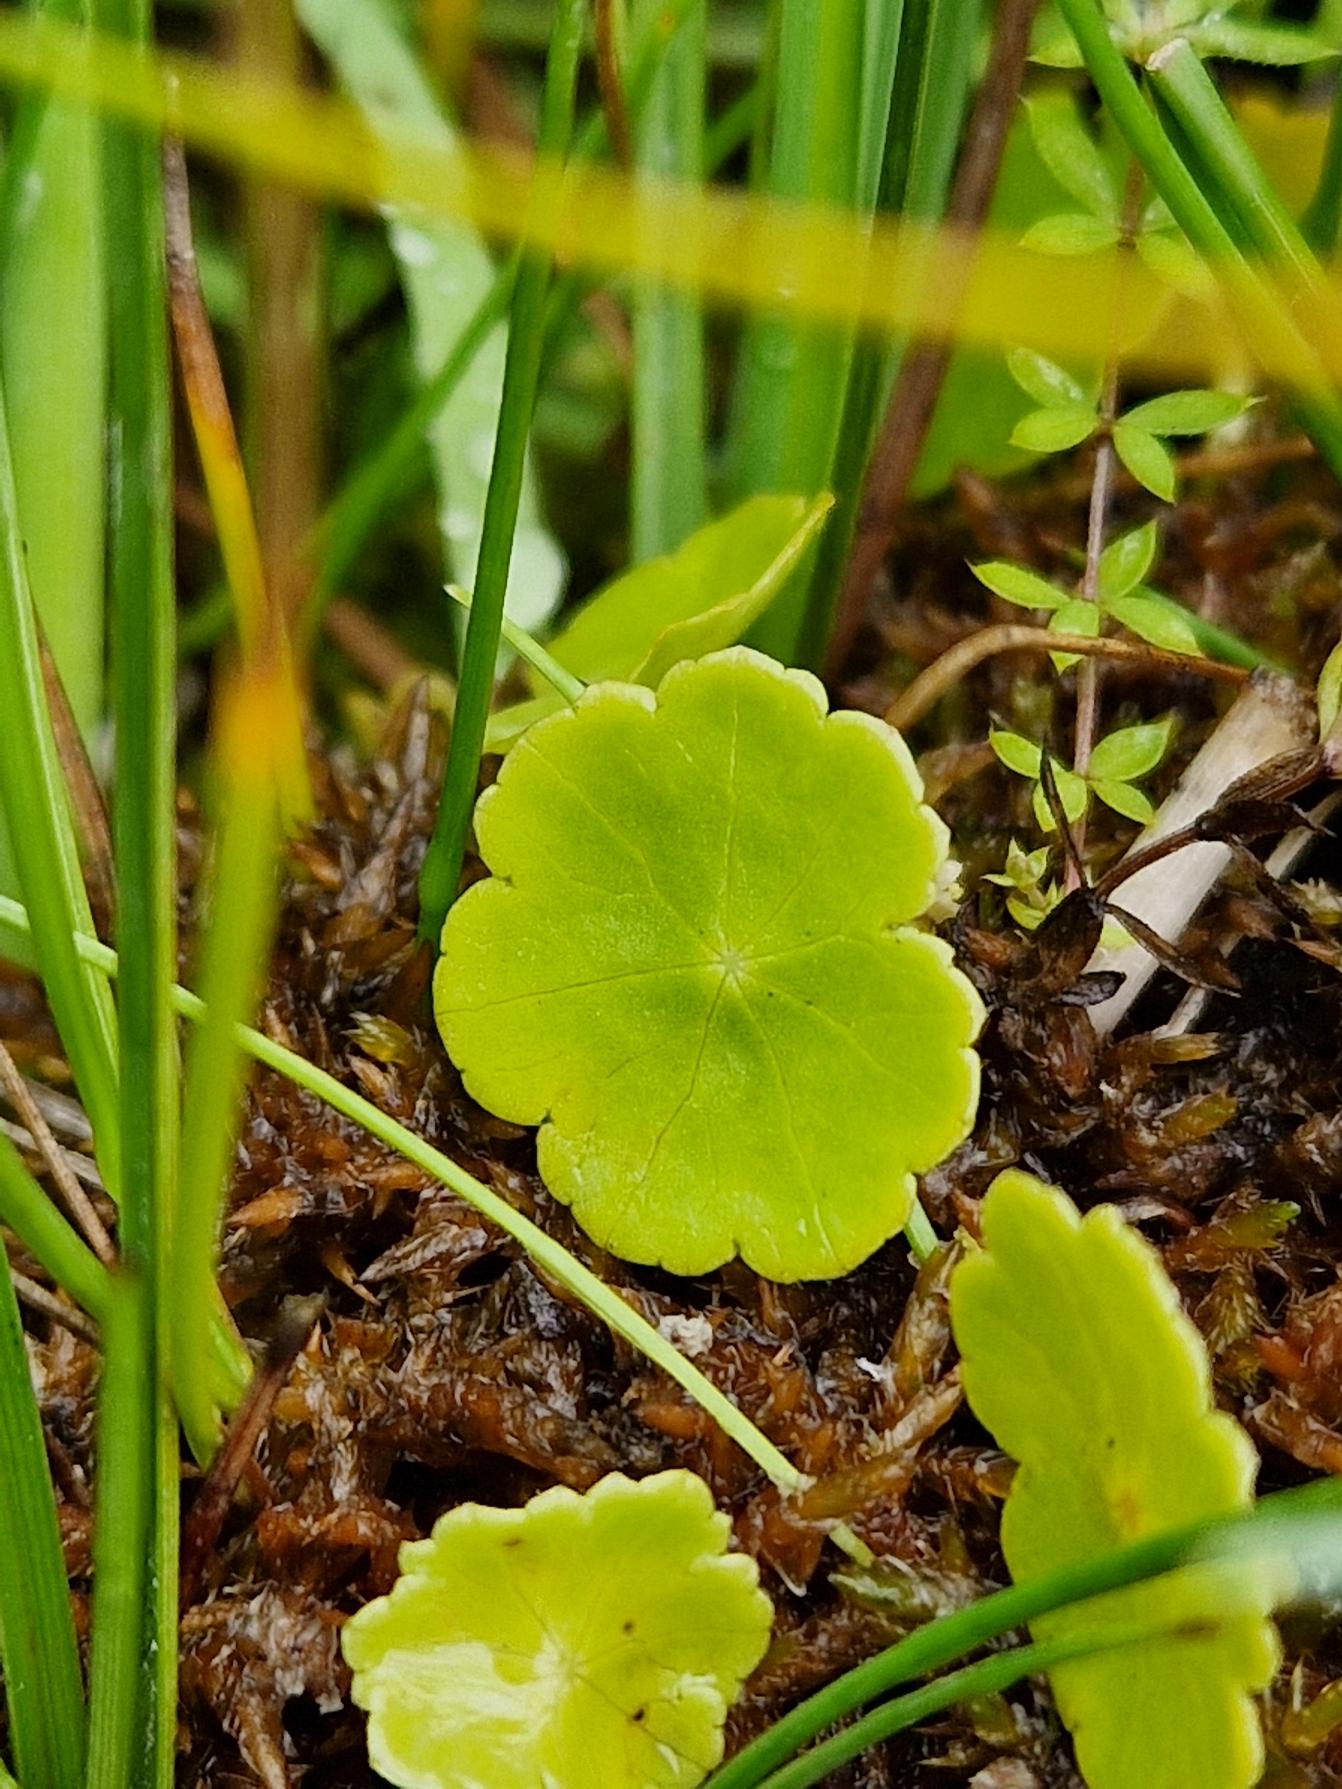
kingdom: Plantae
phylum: Tracheophyta
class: Magnoliopsida
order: Apiales
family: Araliaceae
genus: Hydrocotyle
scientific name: Hydrocotyle vulgaris
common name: Vandnavle
